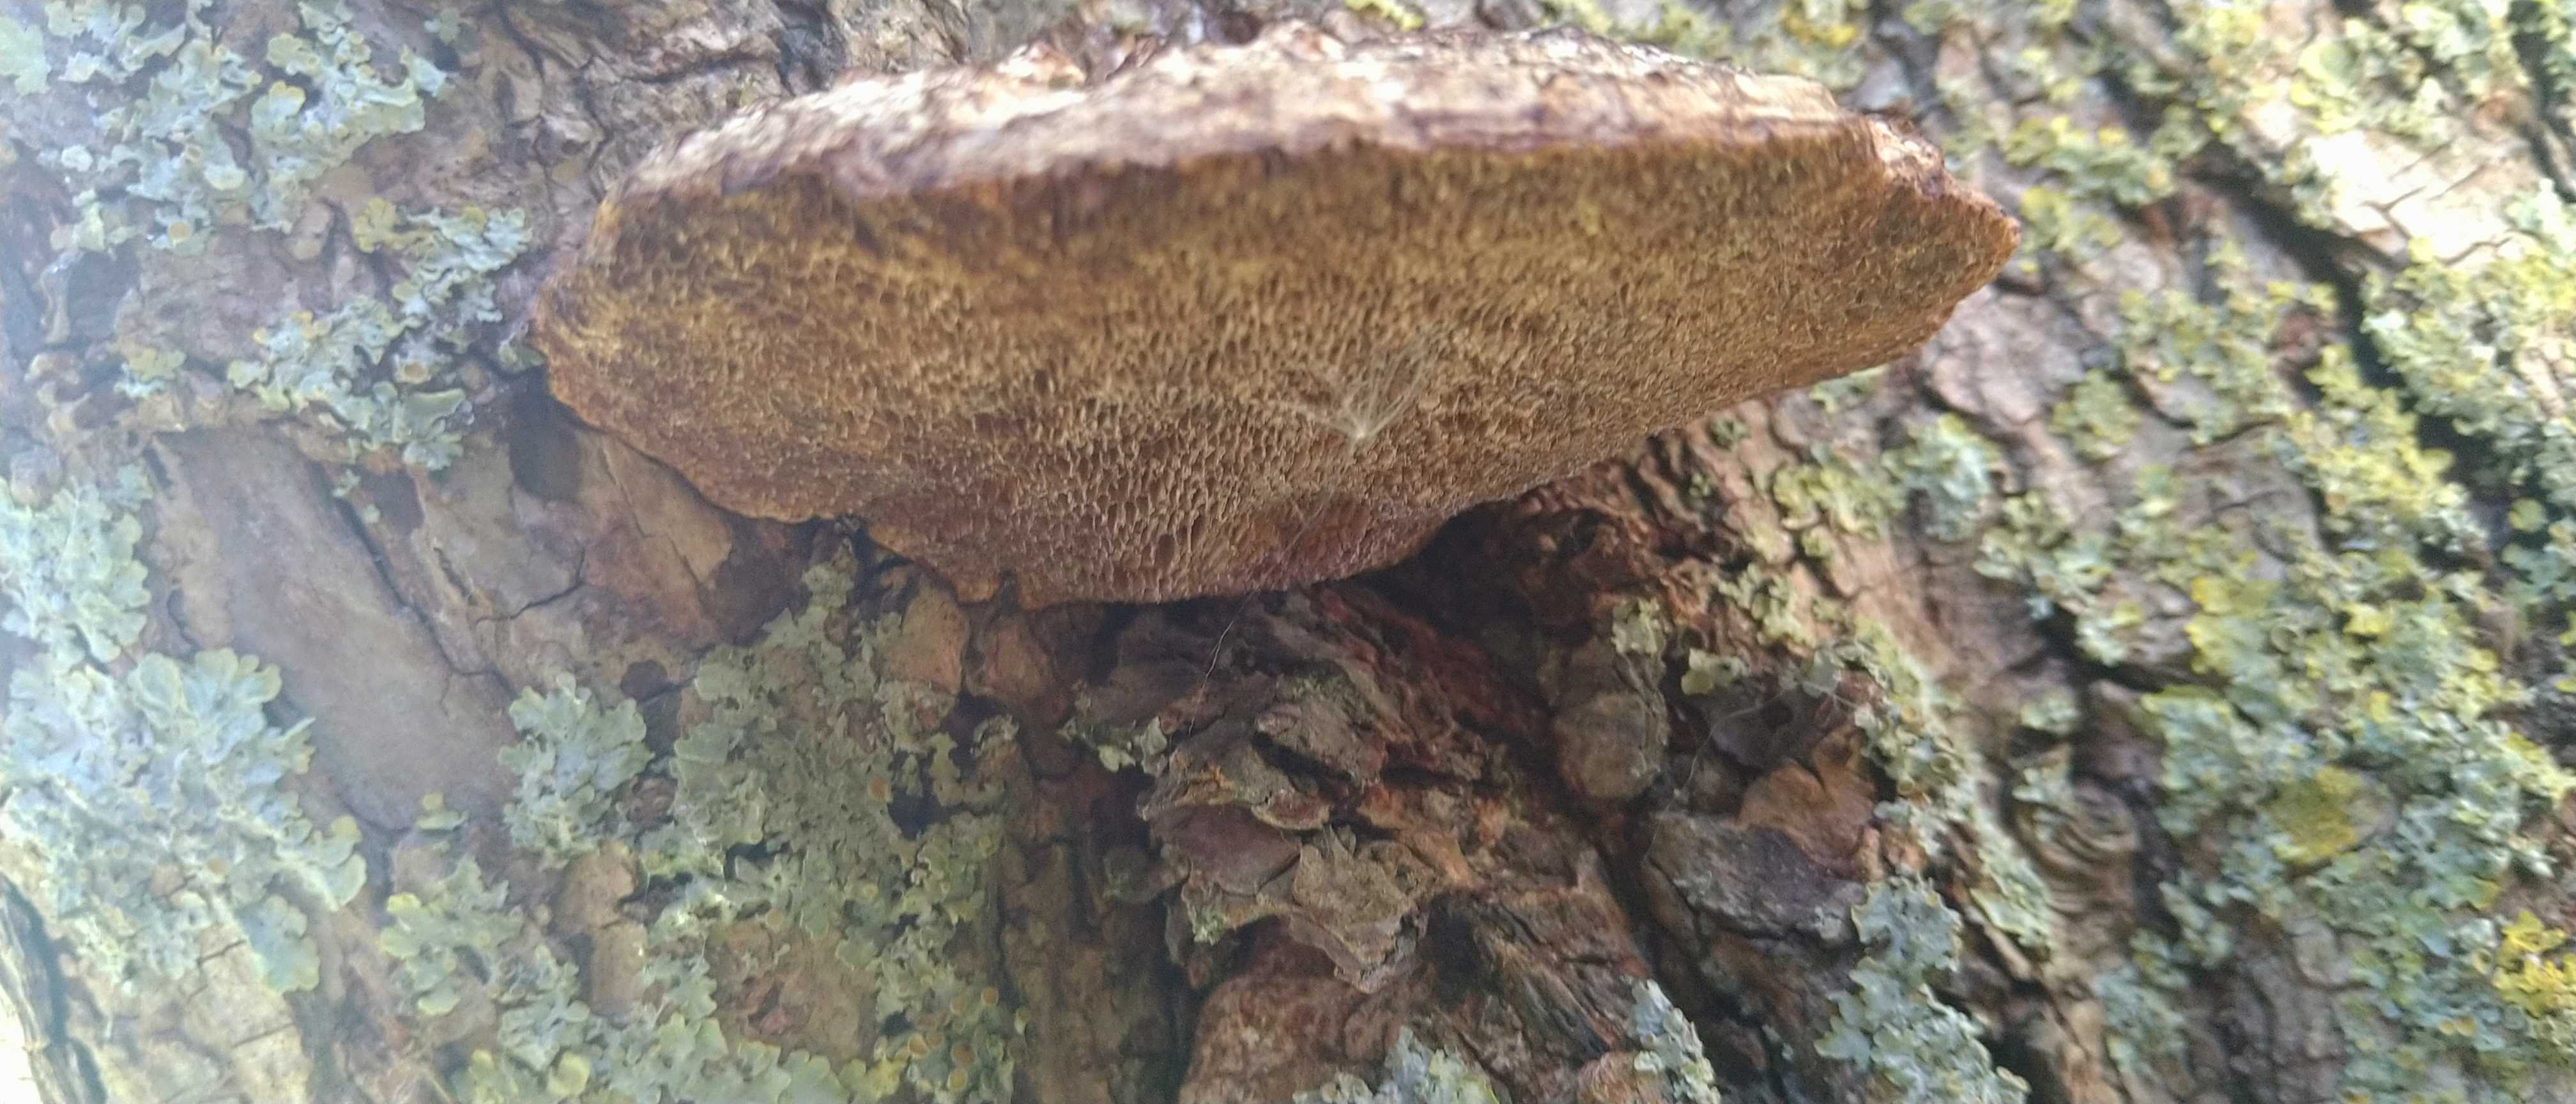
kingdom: Fungi
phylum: Basidiomycota
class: Agaricomycetes
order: Polyporales
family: Polyporaceae
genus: Daedaleopsis
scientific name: Daedaleopsis confragosa
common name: rødmende læderporesvamp
